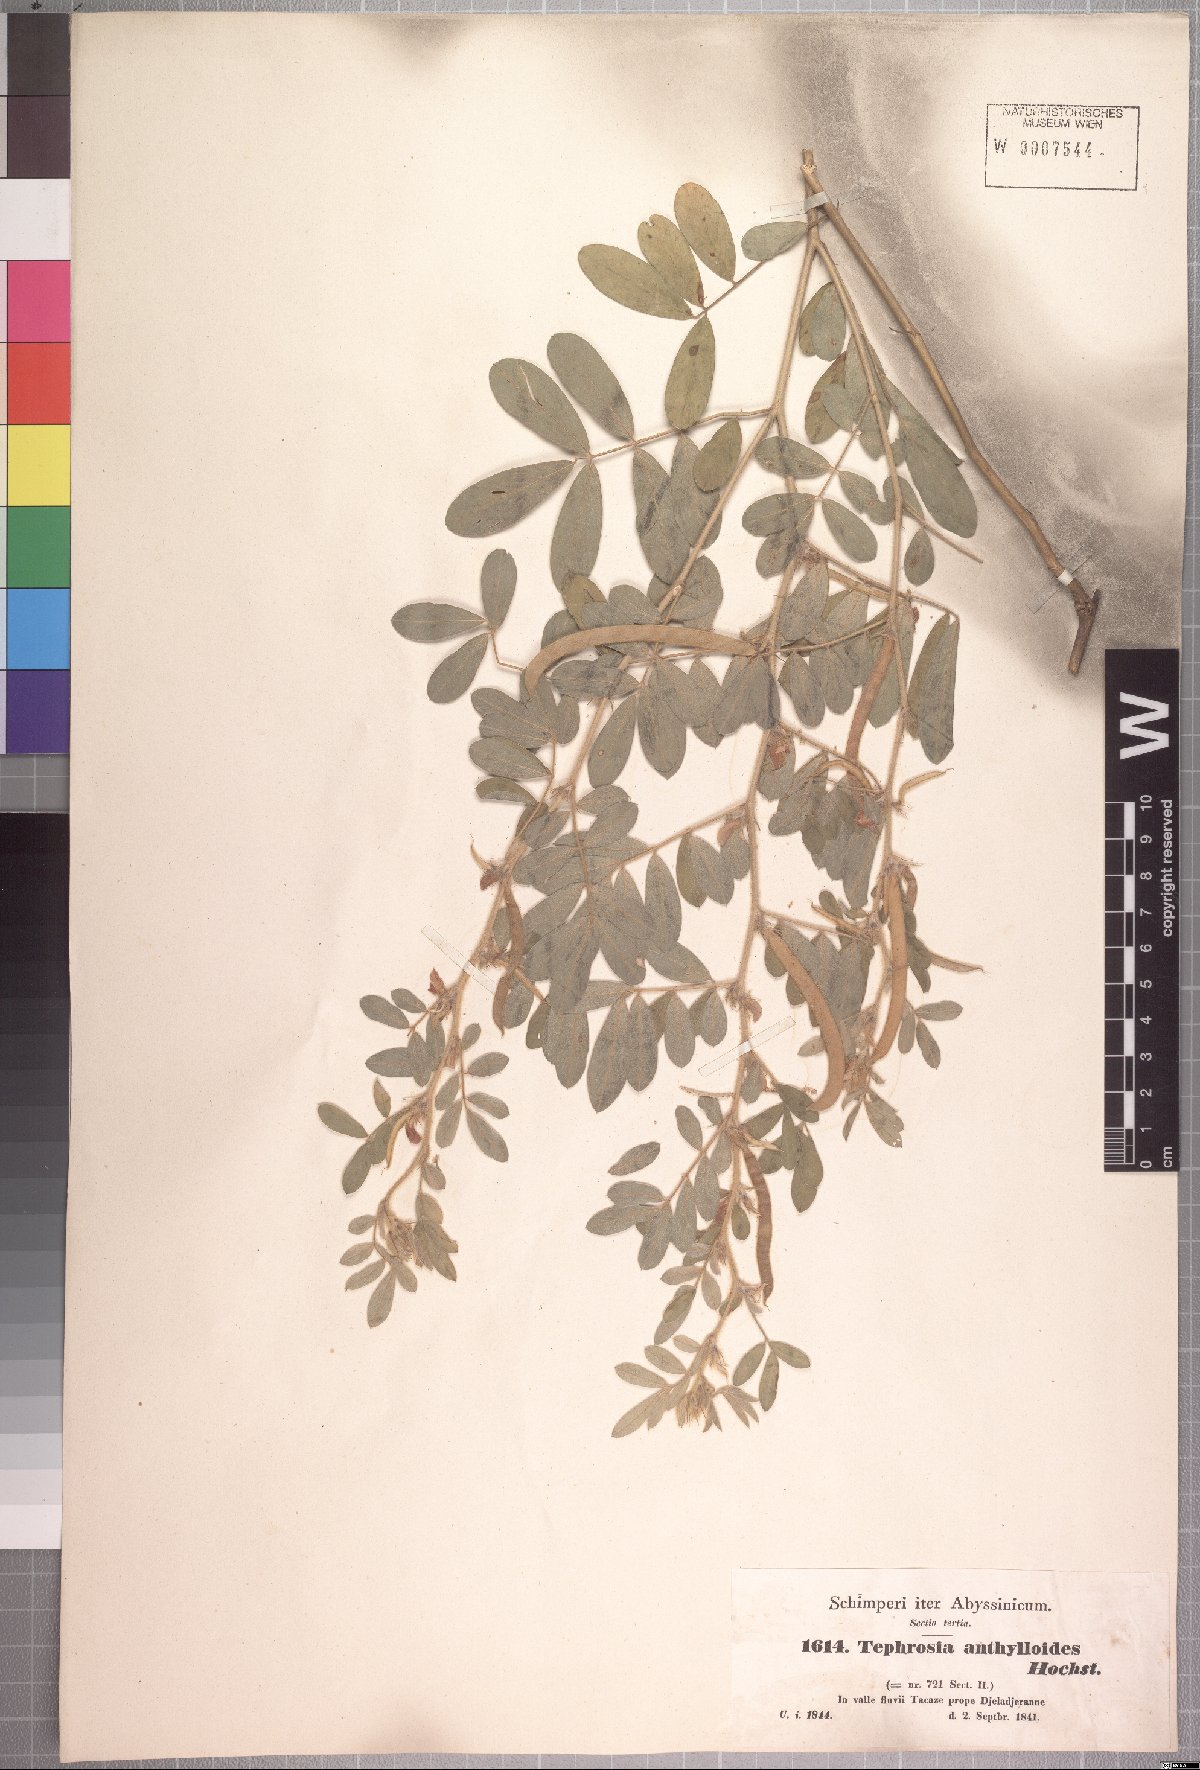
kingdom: Plantae
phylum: Tracheophyta
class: Magnoliopsida
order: Fabales
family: Fabaceae
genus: Tephrosia
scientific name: Tephrosia uniflora
